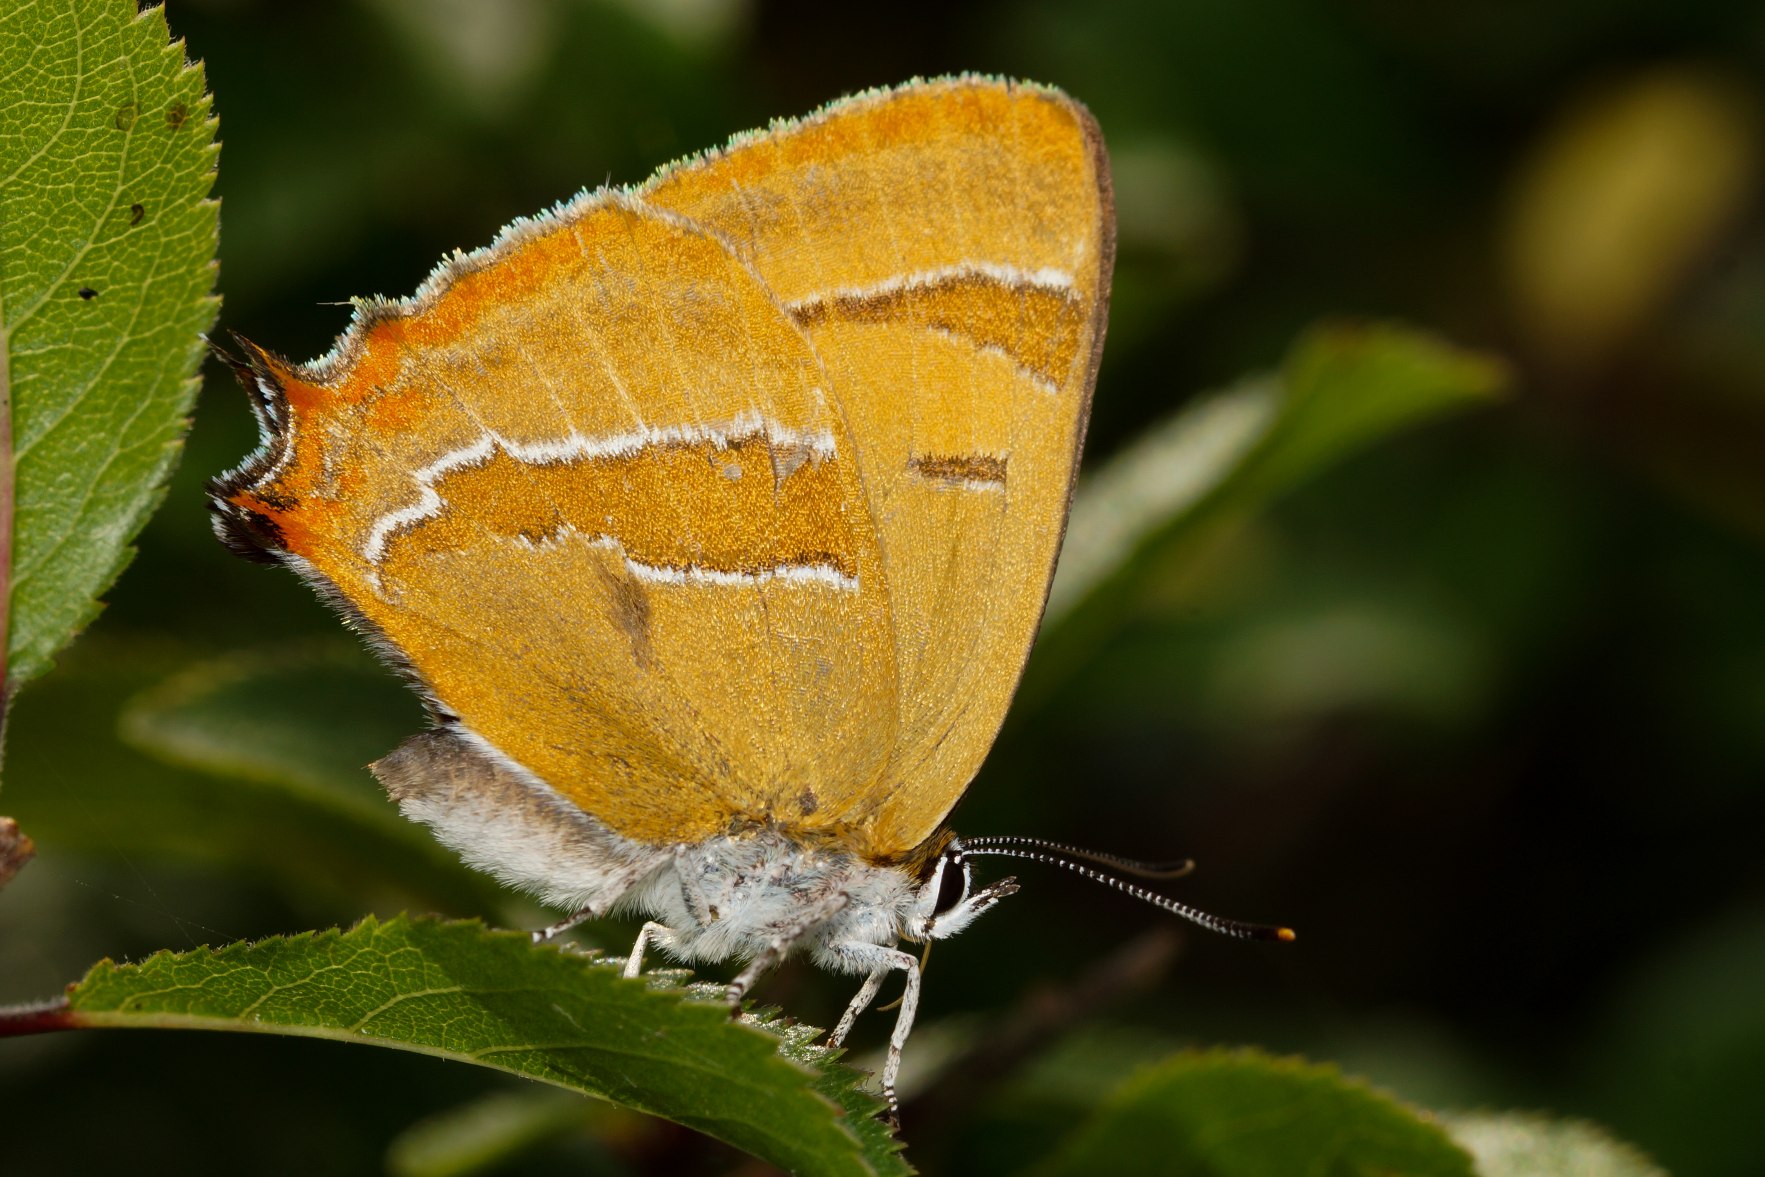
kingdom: Animalia
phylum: Arthropoda
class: Insecta
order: Lepidoptera
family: Lycaenidae
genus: Thecla
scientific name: Thecla betulae
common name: Guldhale
